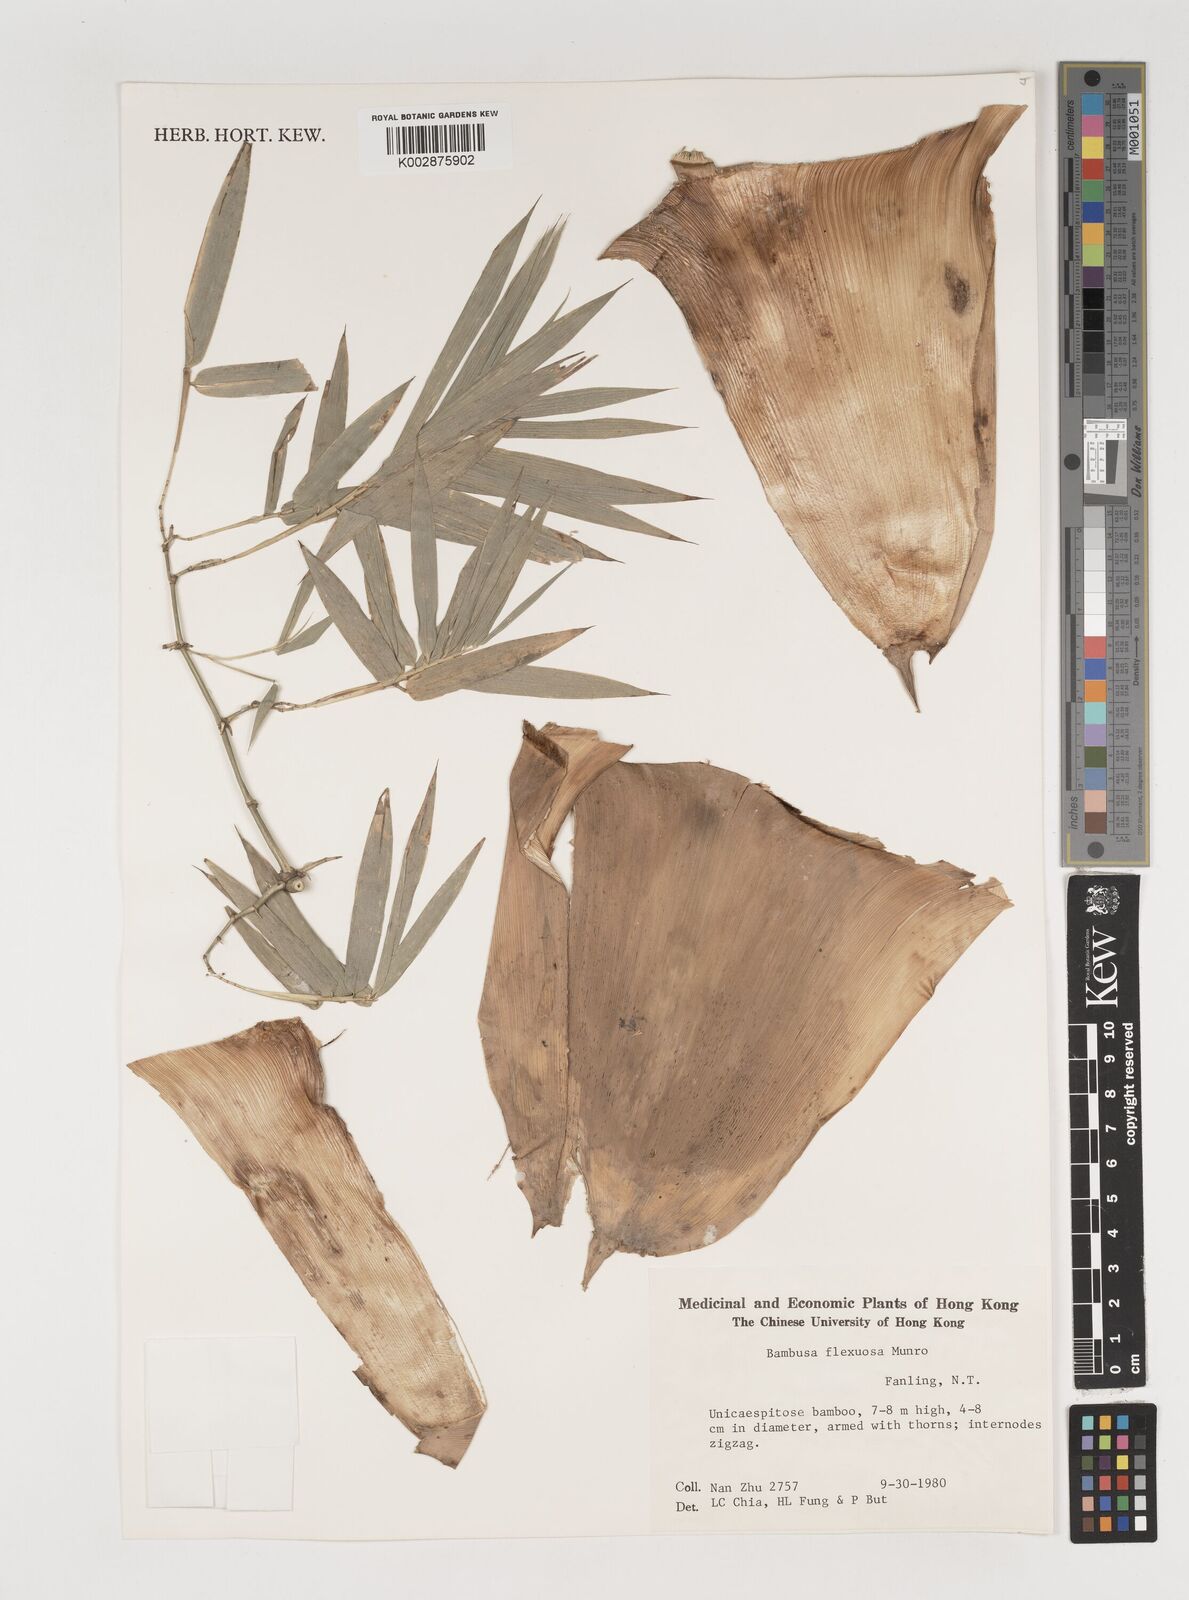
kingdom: Plantae
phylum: Tracheophyta
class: Liliopsida
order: Poales
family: Poaceae
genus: Bambusa
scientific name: Bambusa flexuosa
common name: Lesser thorny bamboo
